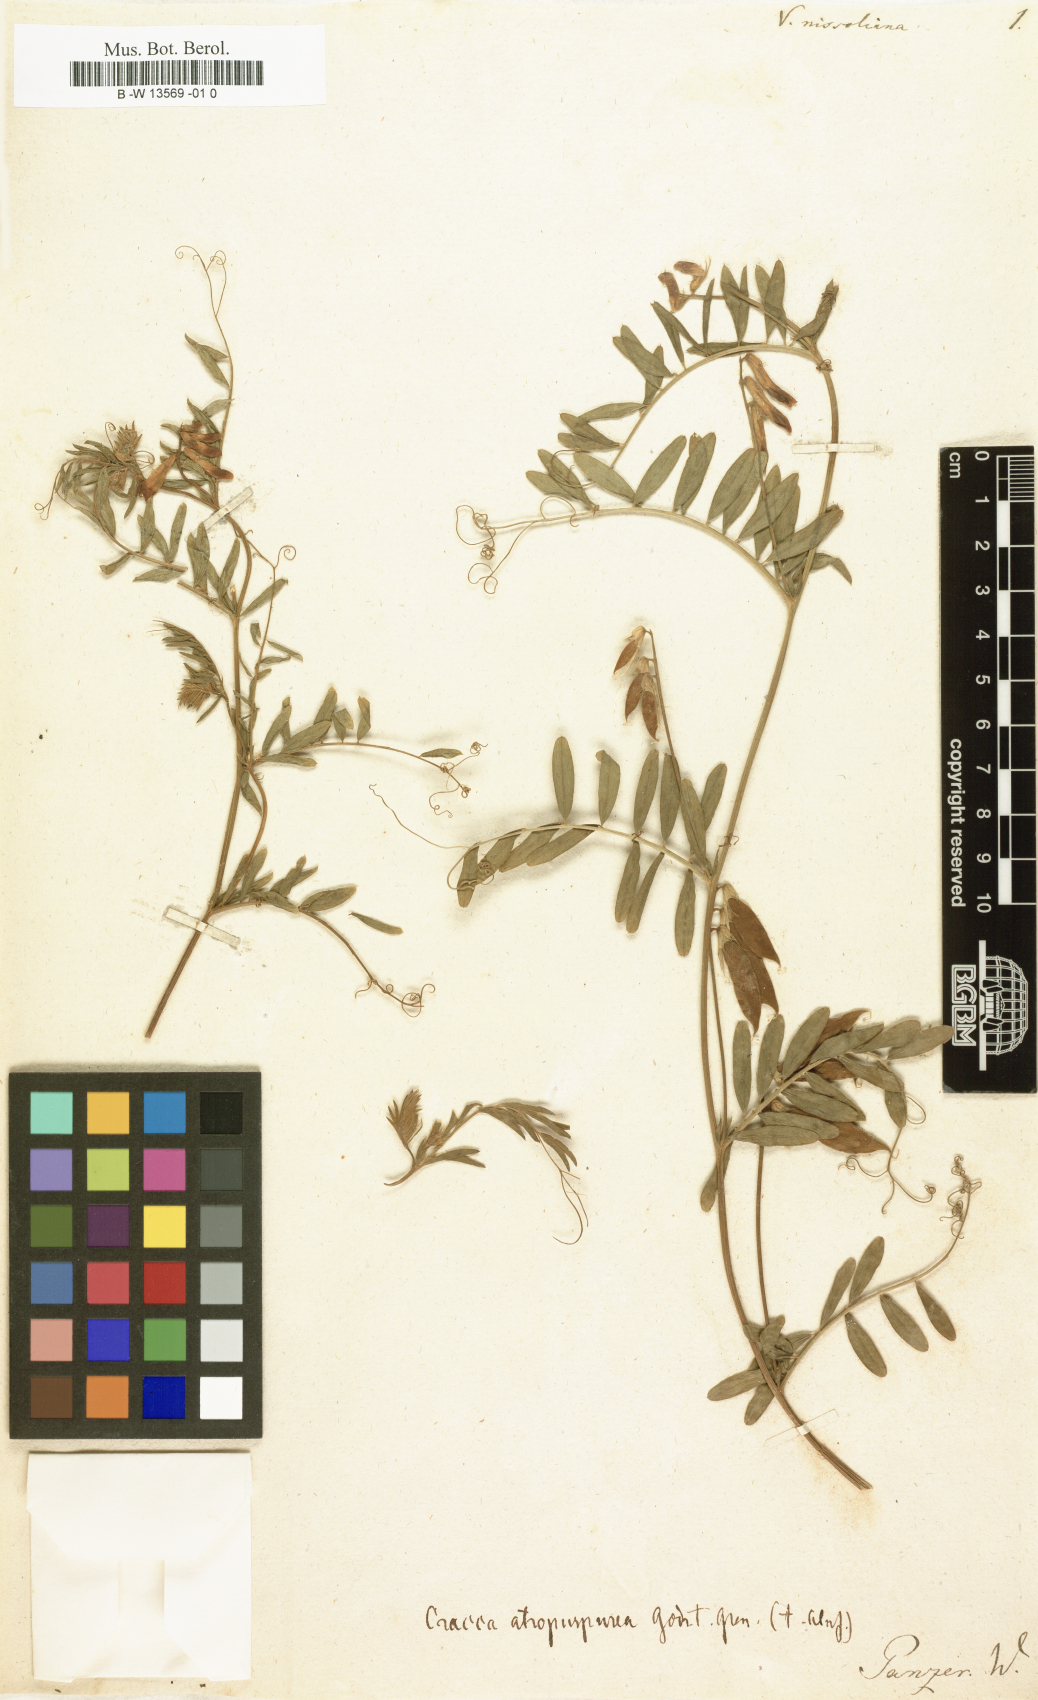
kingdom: Plantae
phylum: Tracheophyta
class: Magnoliopsida
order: Fabales
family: Fabaceae
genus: Vicia
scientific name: Vicia
